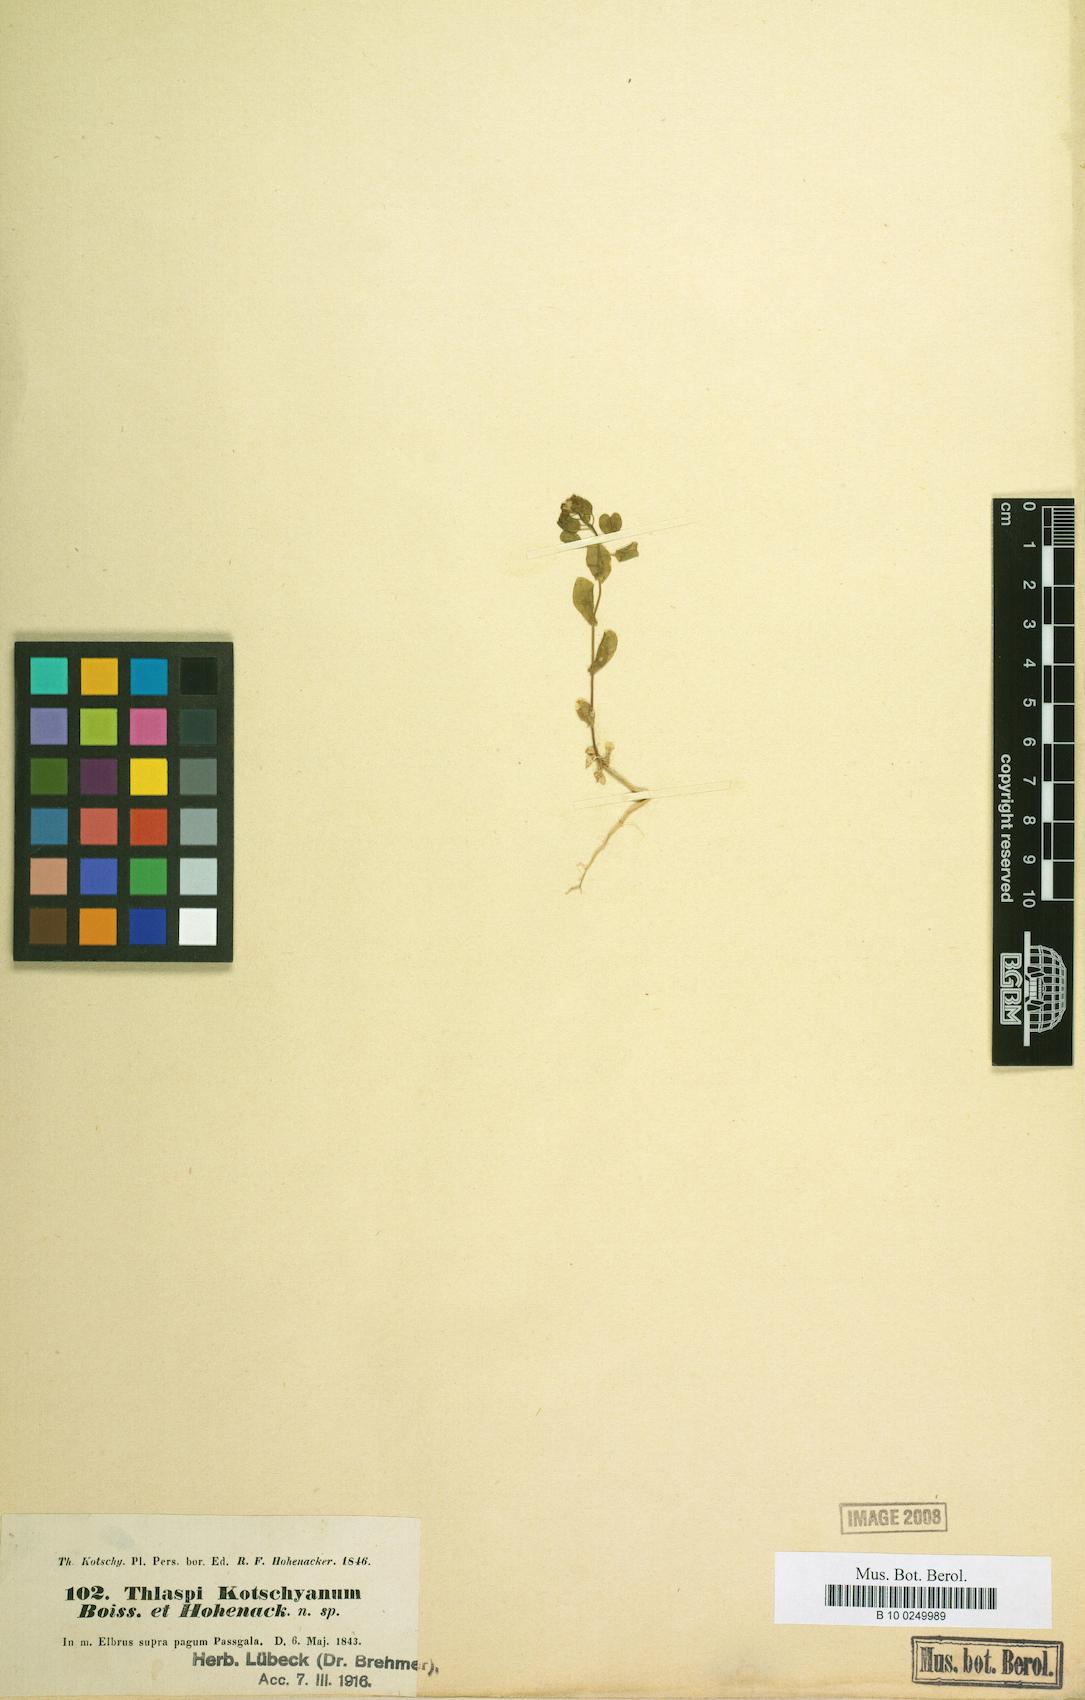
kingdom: Plantae
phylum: Tracheophyta
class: Magnoliopsida
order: Brassicales
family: Brassicaceae
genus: Noccaea
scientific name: Noccaea platycarpa
